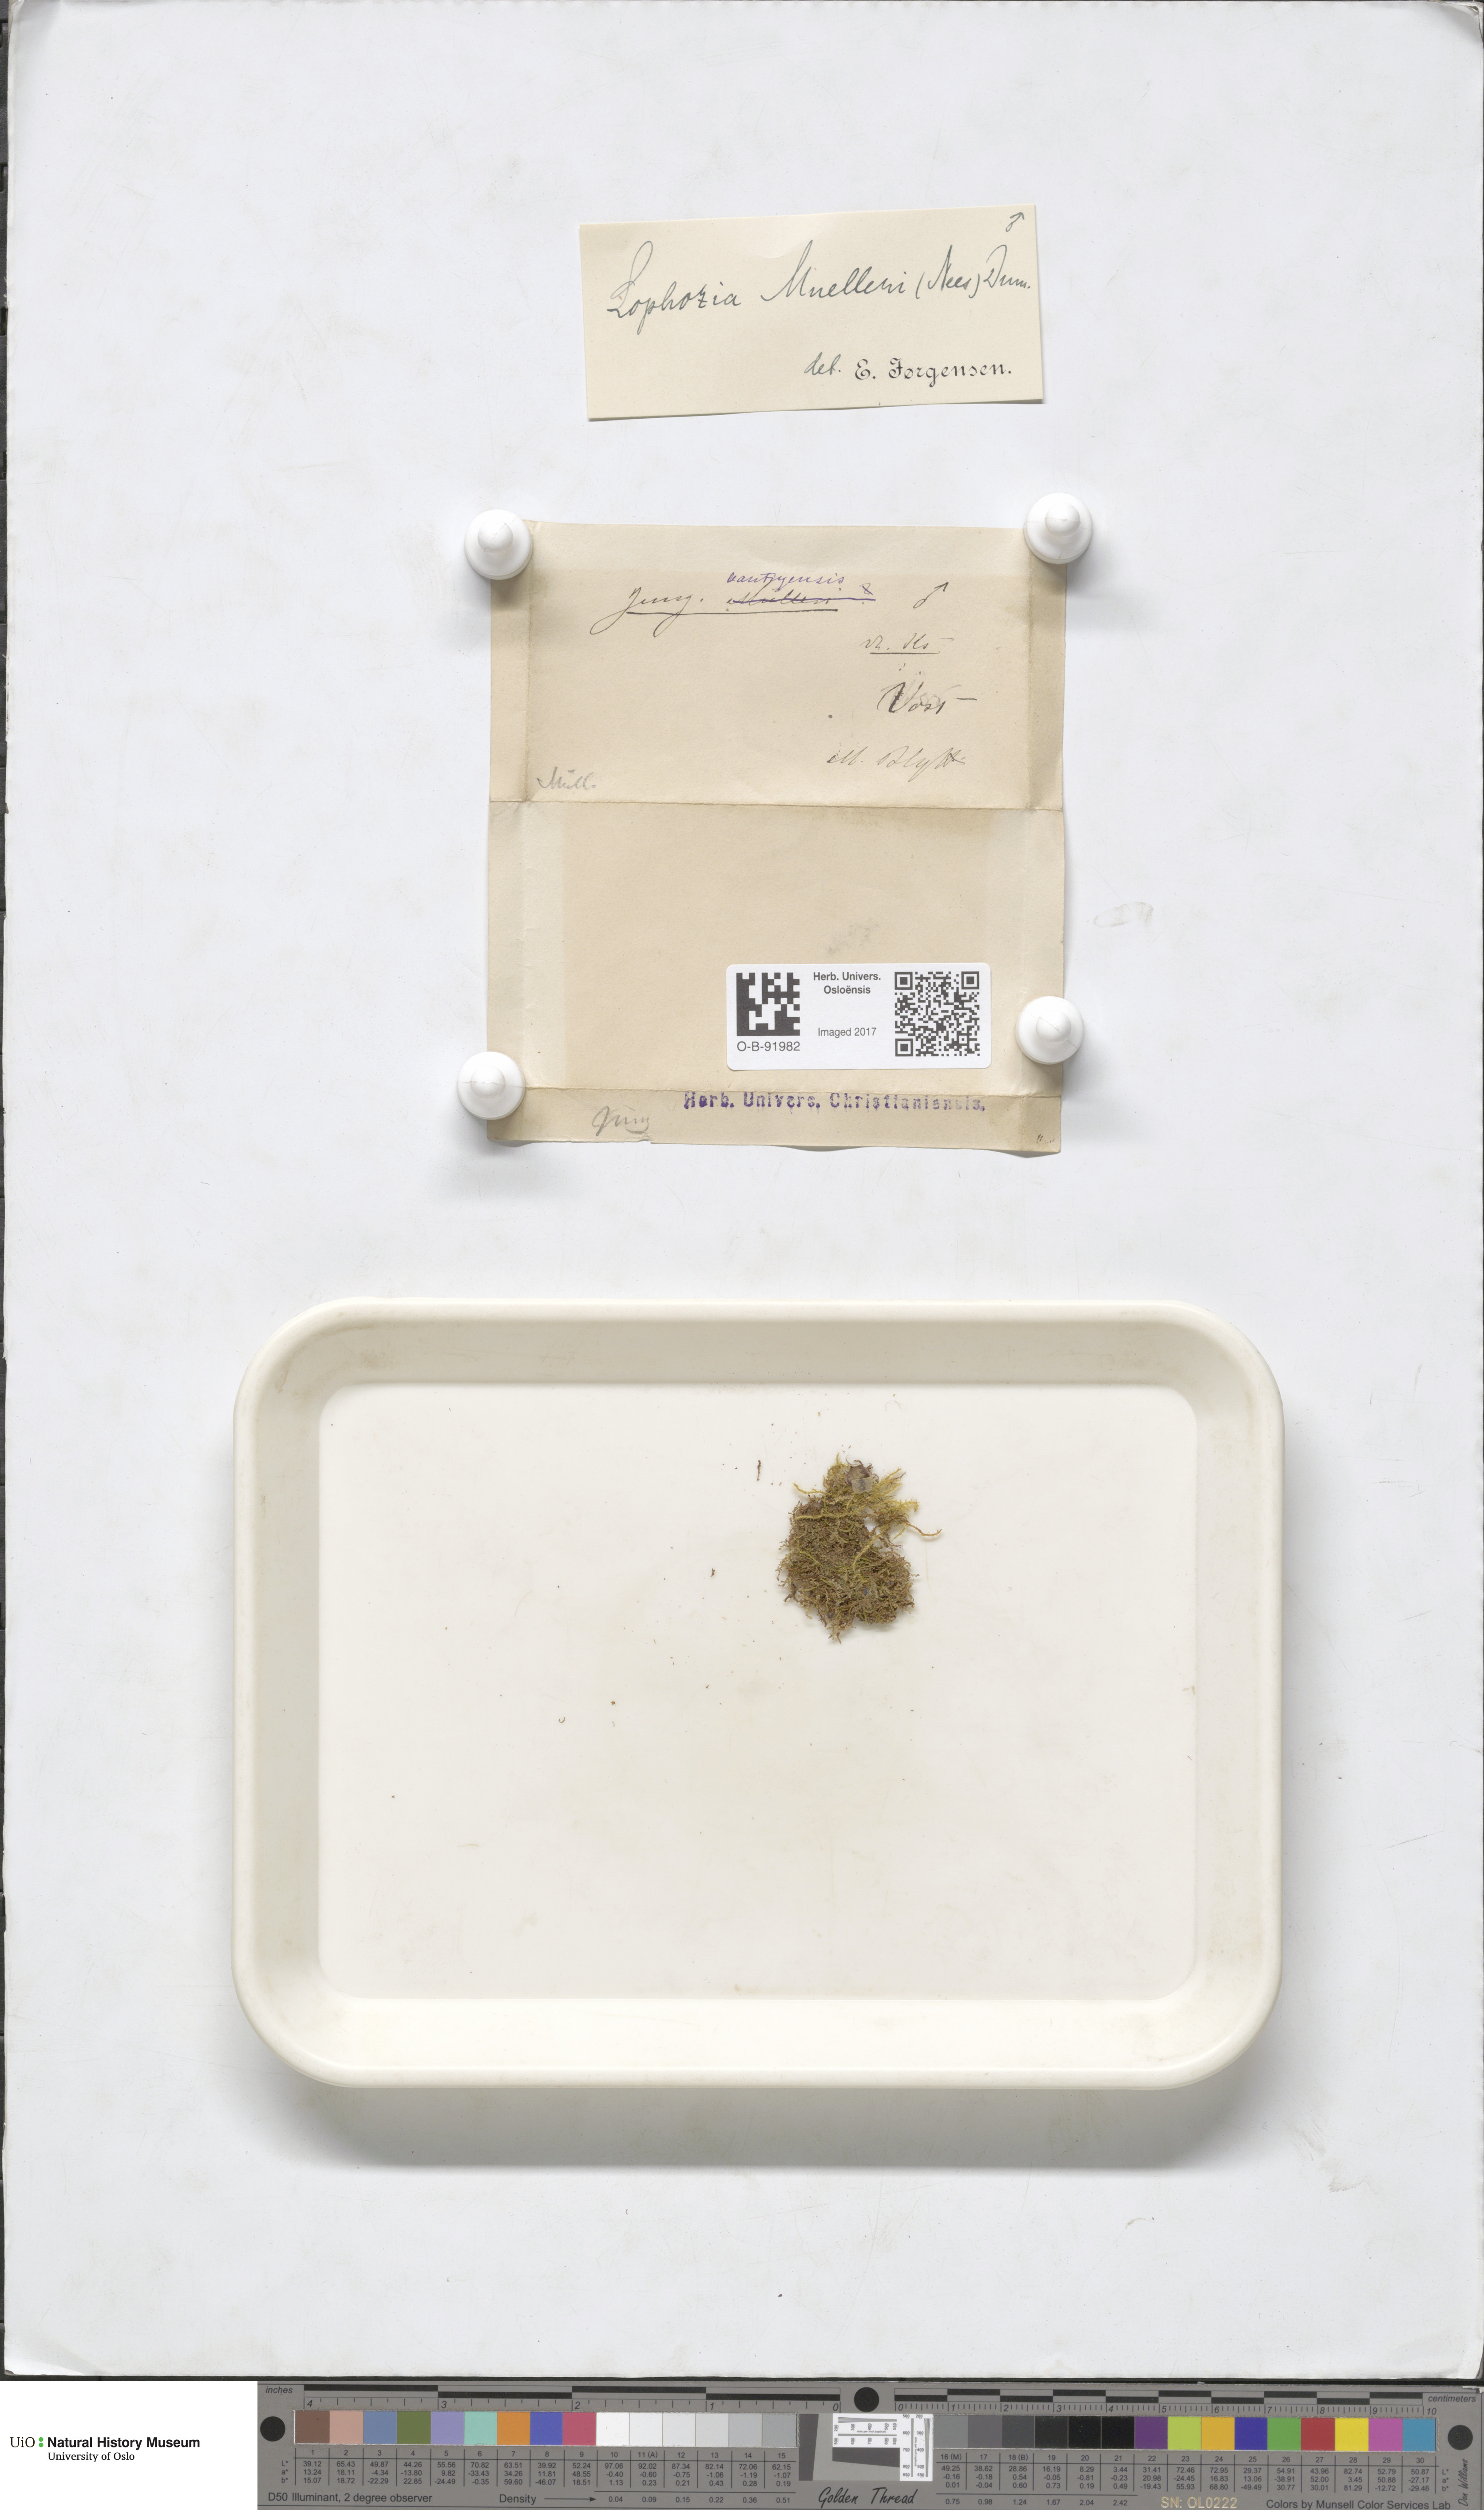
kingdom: Plantae
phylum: Marchantiophyta
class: Jungermanniopsida
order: Jungermanniales
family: Jungermanniaceae
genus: Mesoptychia
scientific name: Mesoptychia collaris
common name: Collared notchwort
